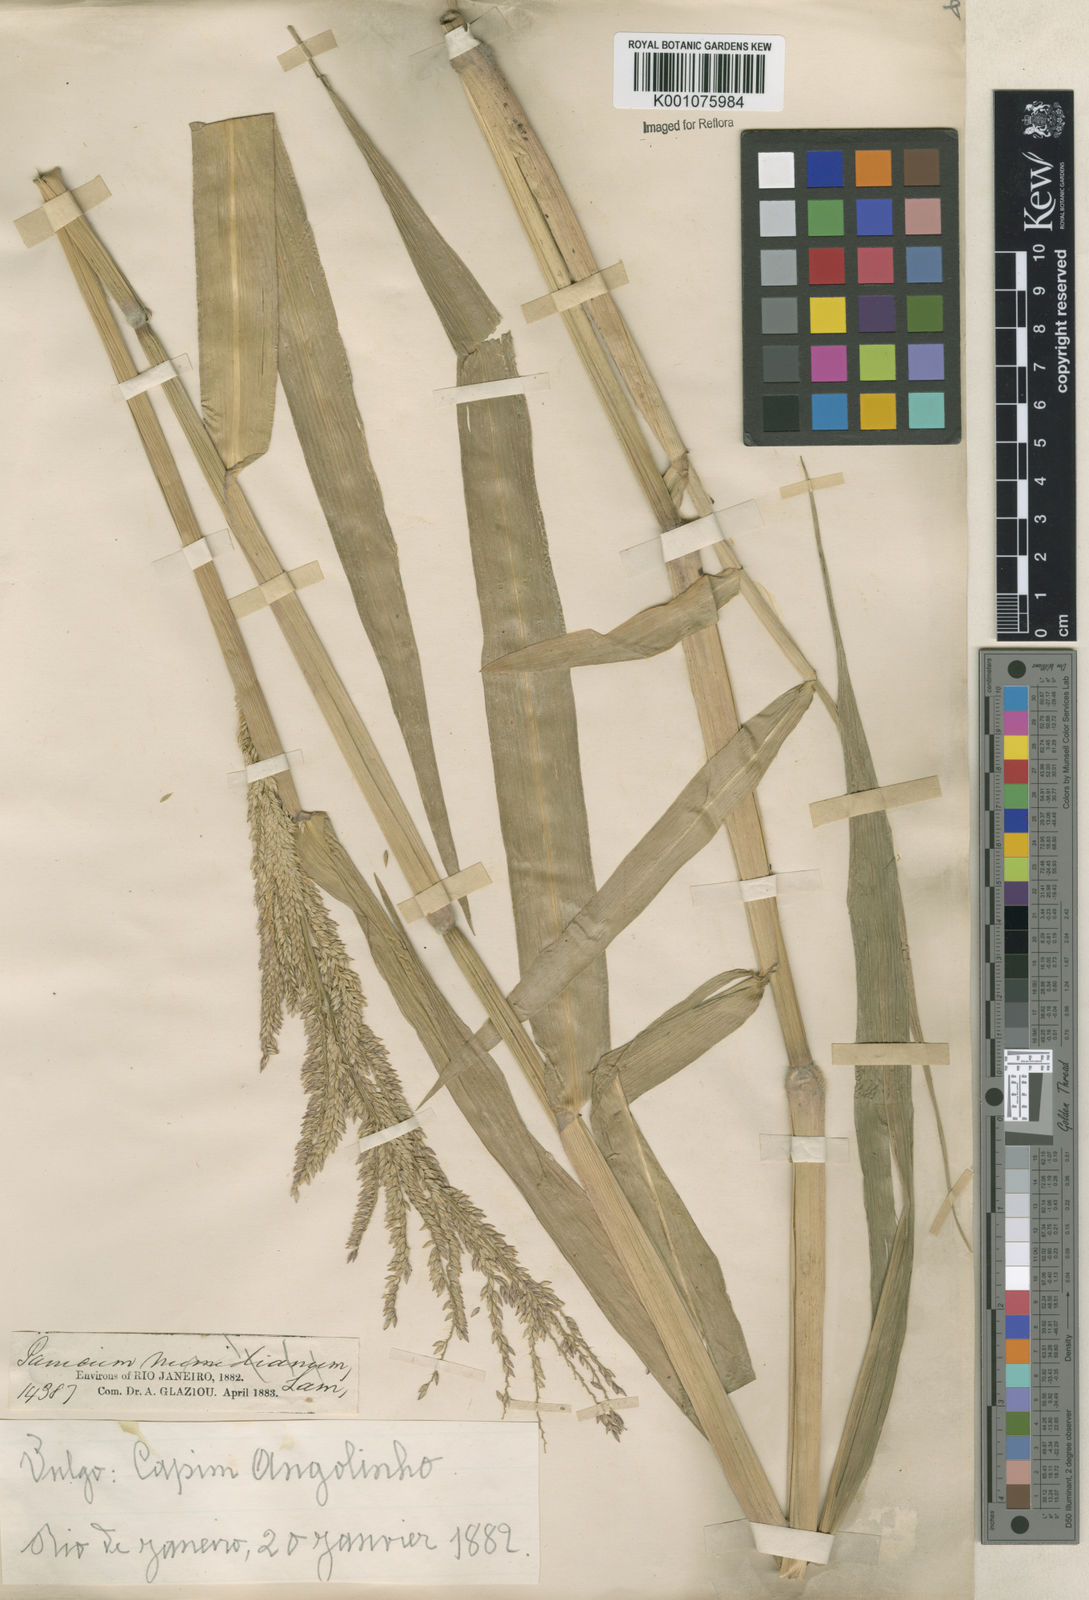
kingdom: Plantae
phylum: Tracheophyta
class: Liliopsida
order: Poales
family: Poaceae
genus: Eriochloa
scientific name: Eriochloa punctata
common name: Louisiana cupgrass
